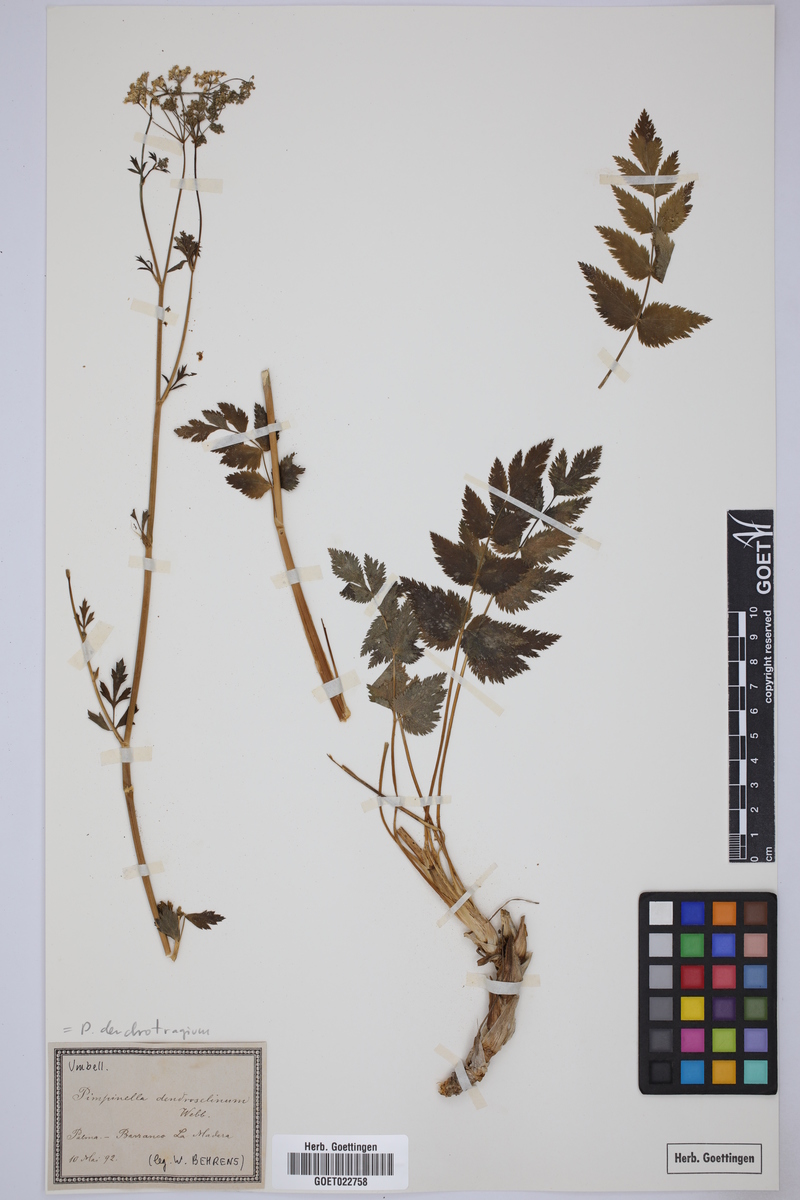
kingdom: Plantae
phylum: Tracheophyta
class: Magnoliopsida
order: Apiales
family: Apiaceae
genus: Pimpinella
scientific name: Pimpinella dendroselinum
